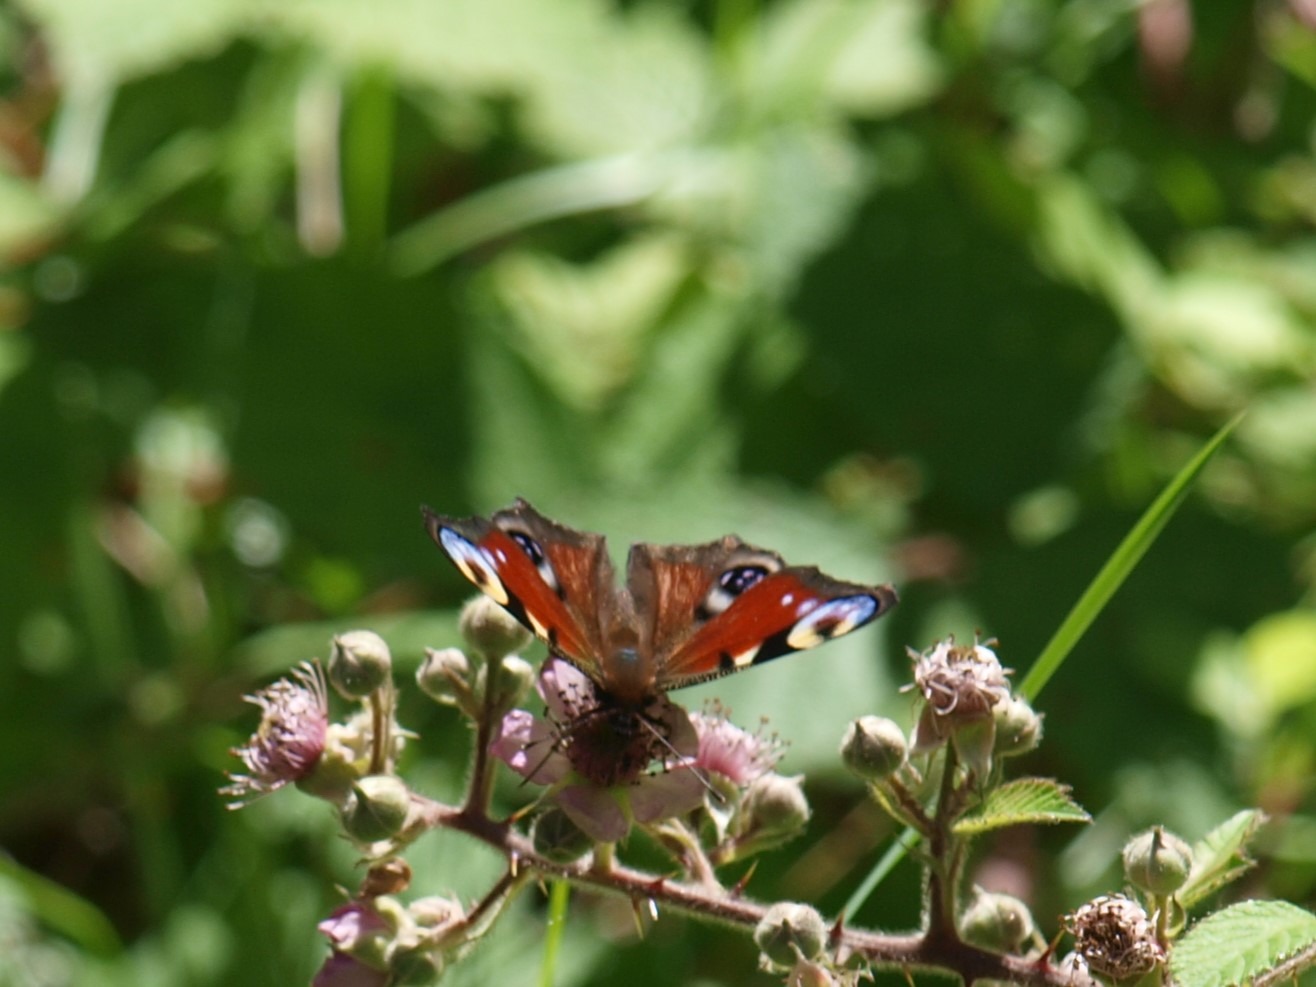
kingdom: Animalia
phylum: Arthropoda
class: Insecta
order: Lepidoptera
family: Nymphalidae
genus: Aglais
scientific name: Aglais io
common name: Dagpåfugleøje
